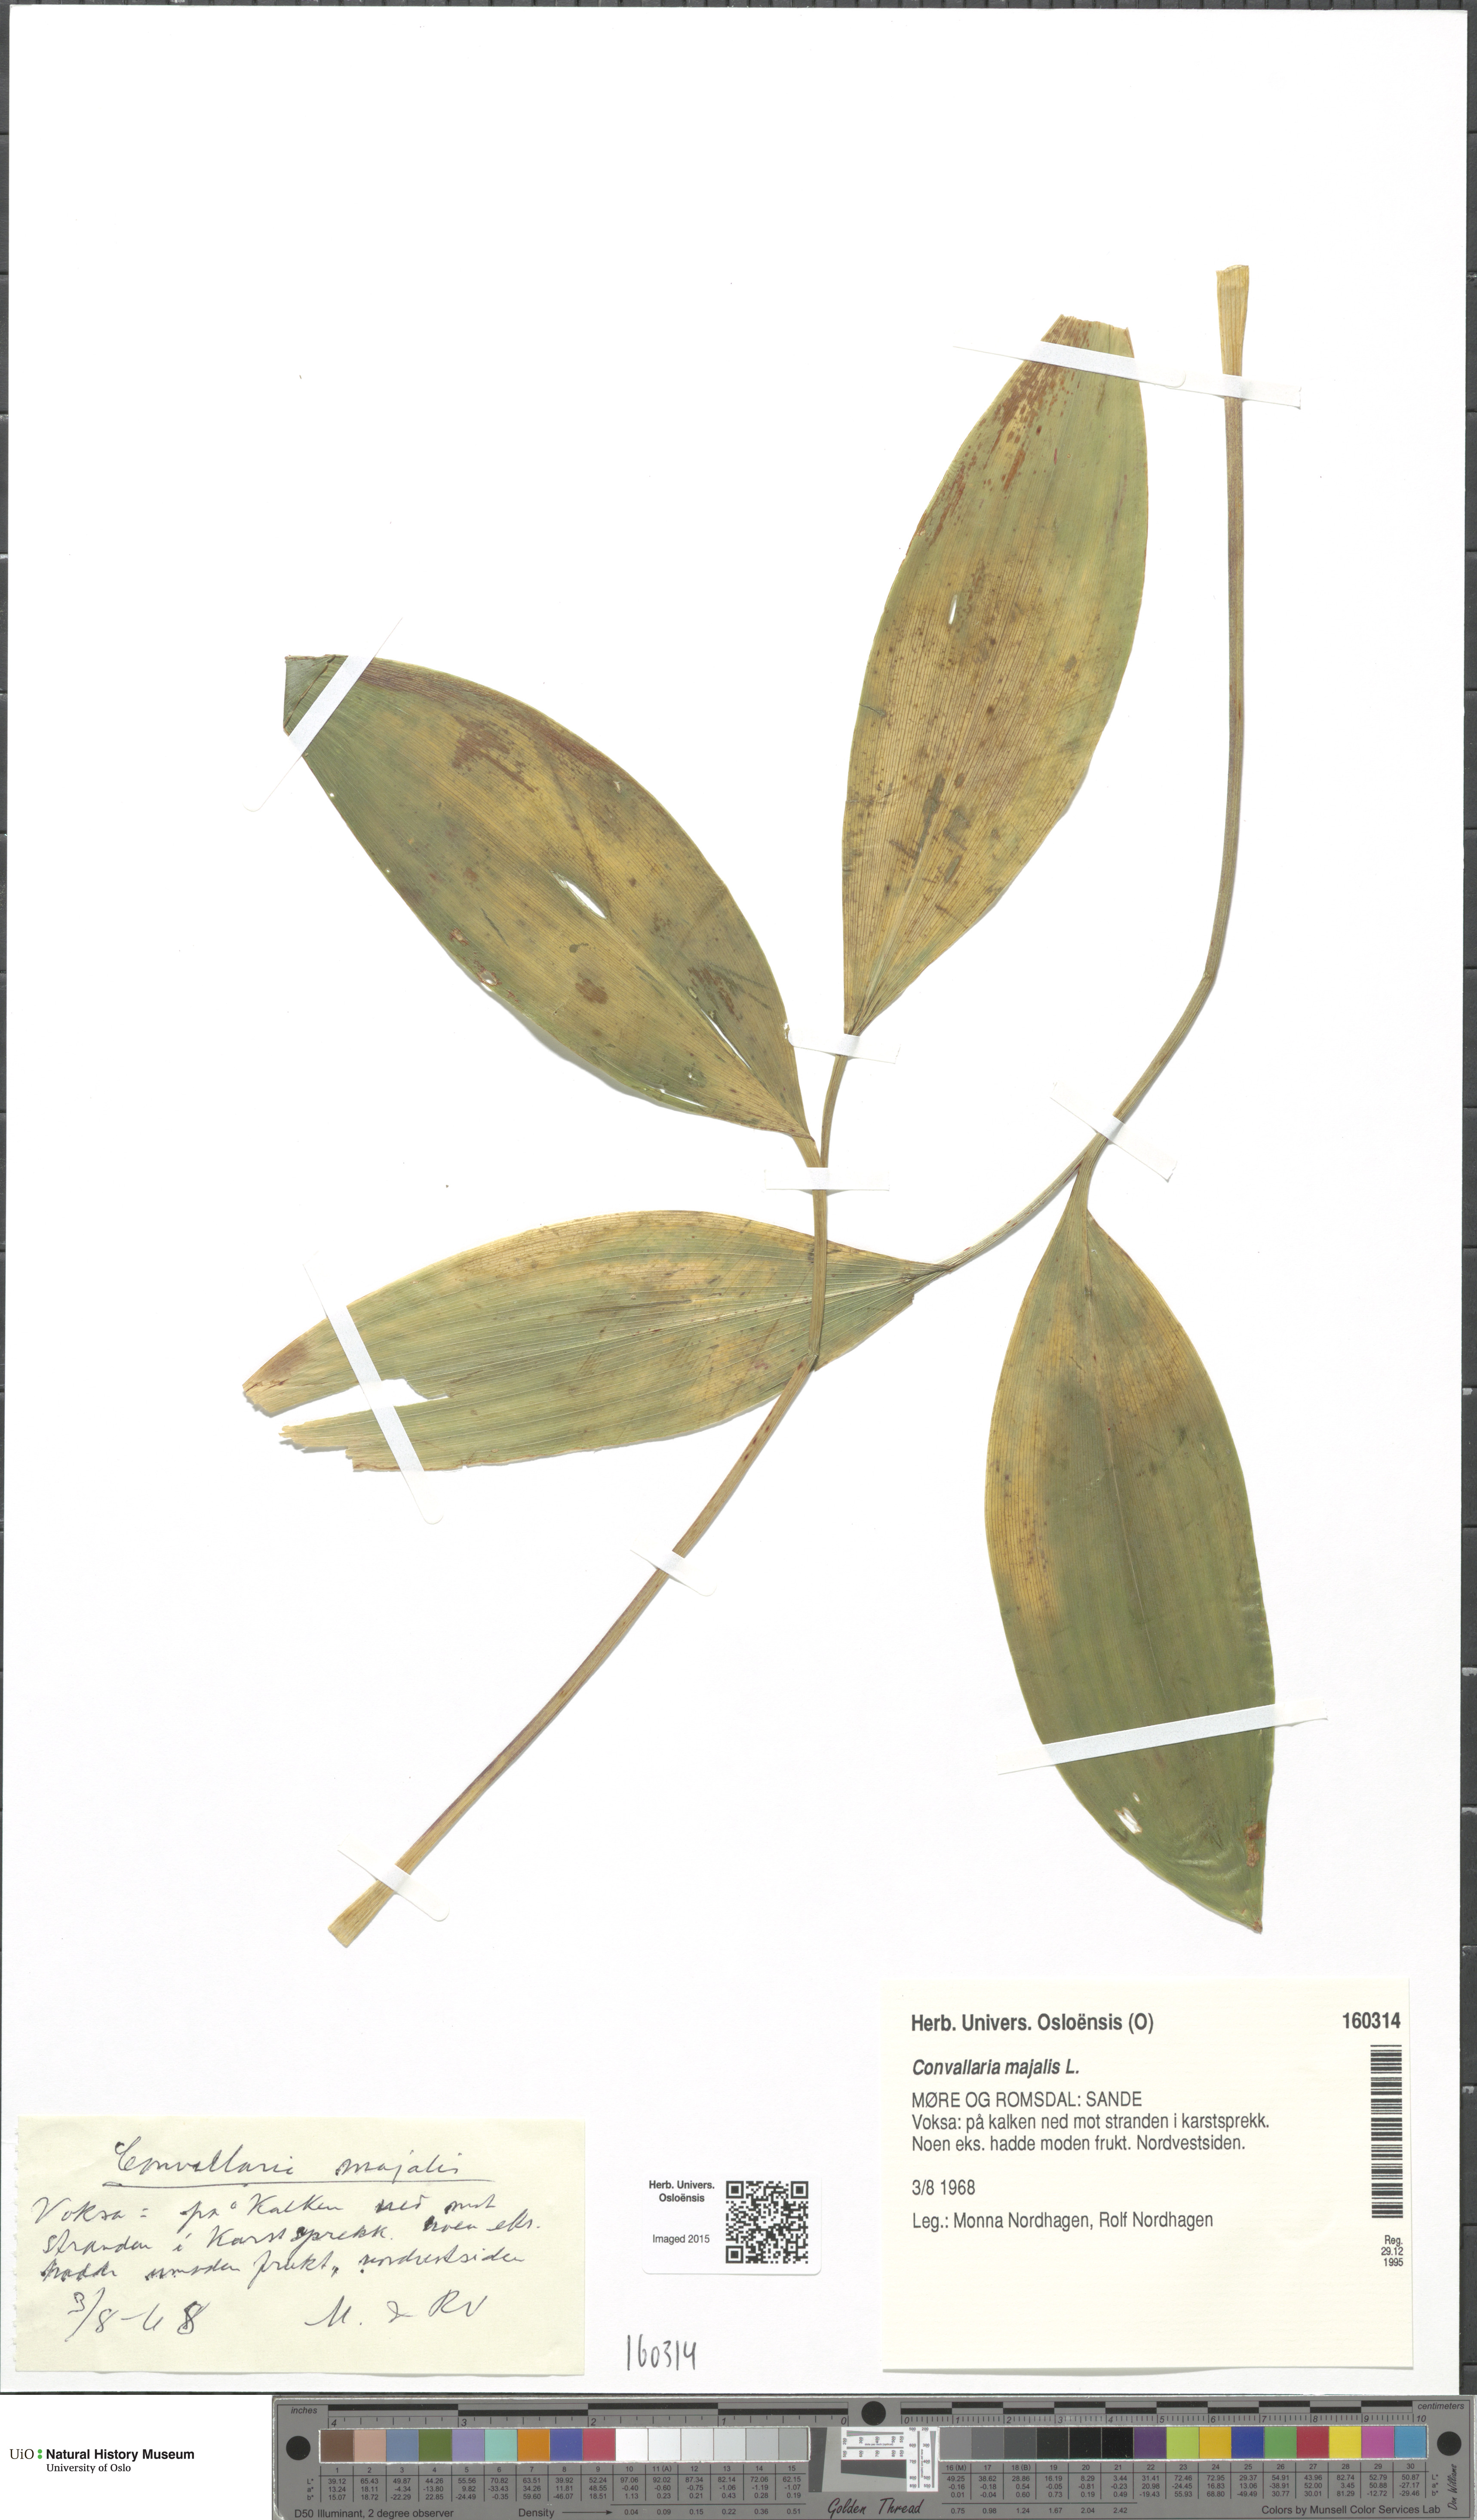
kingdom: Plantae
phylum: Tracheophyta
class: Liliopsida
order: Asparagales
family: Asparagaceae
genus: Convallaria
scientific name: Convallaria majalis
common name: Lily-of-the-valley
